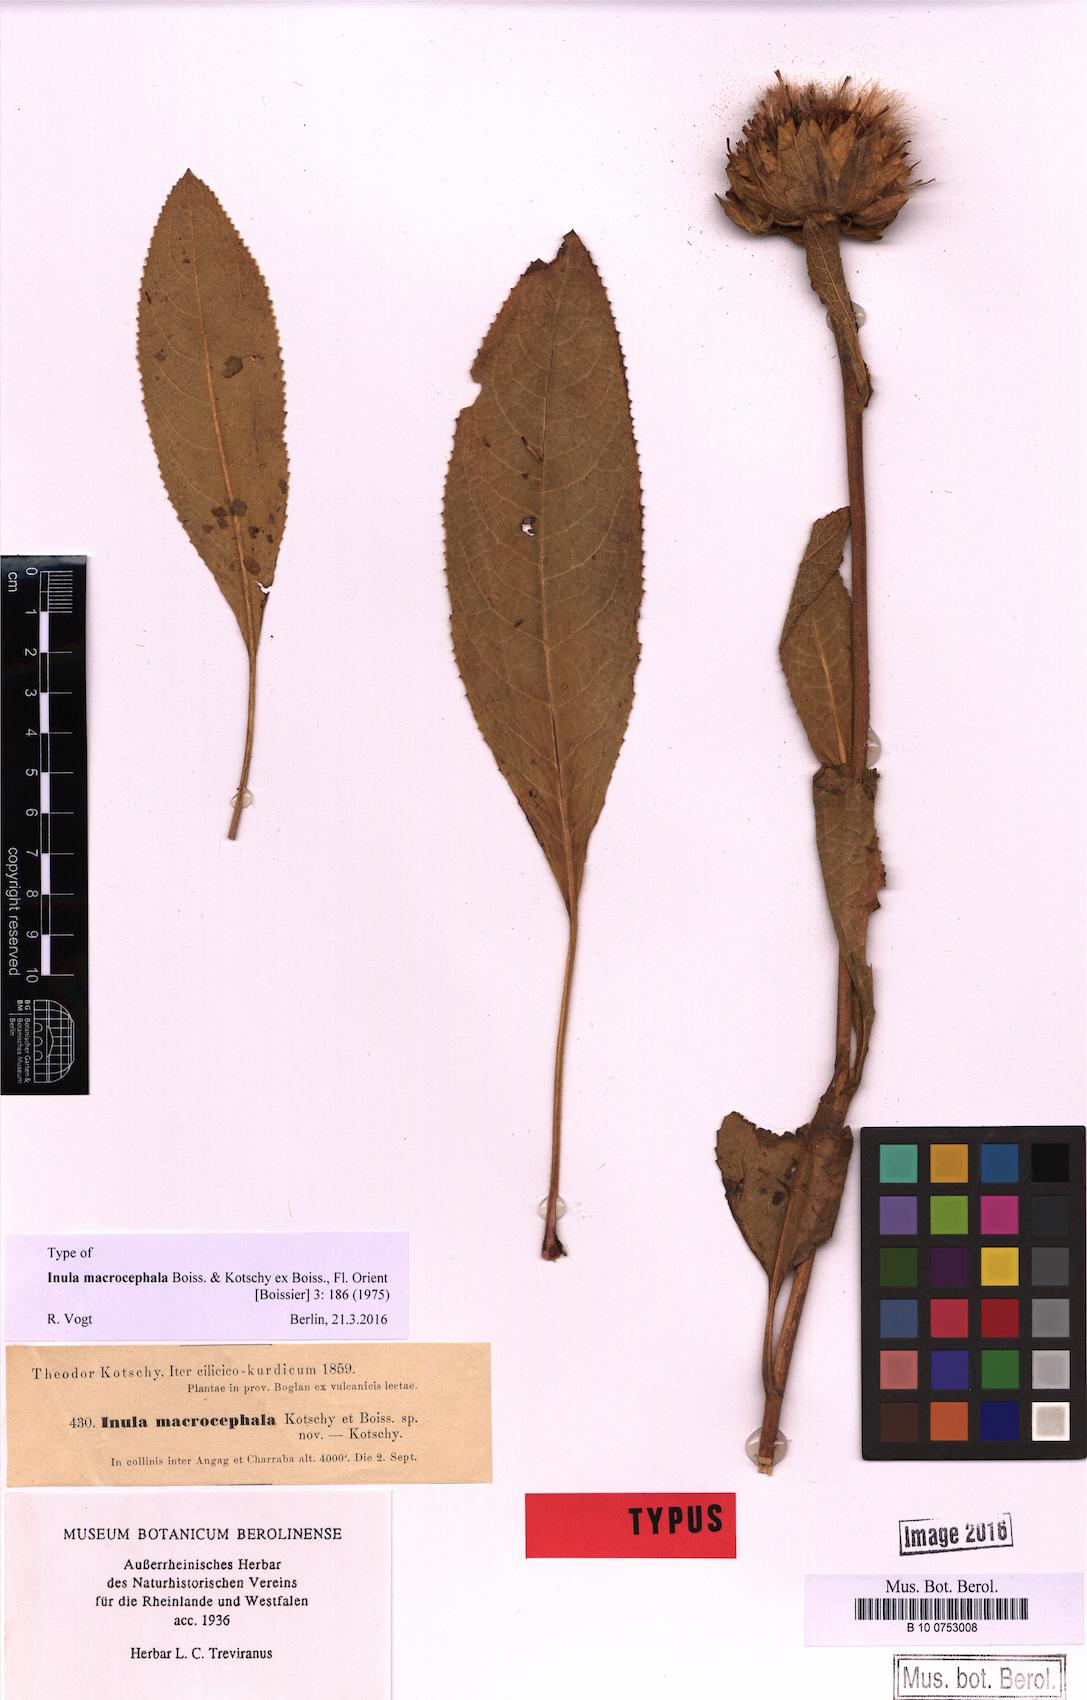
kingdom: Plantae
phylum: Tracheophyta
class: Magnoliopsida
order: Asterales
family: Asteraceae
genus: Inula
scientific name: Inula macrocephala
